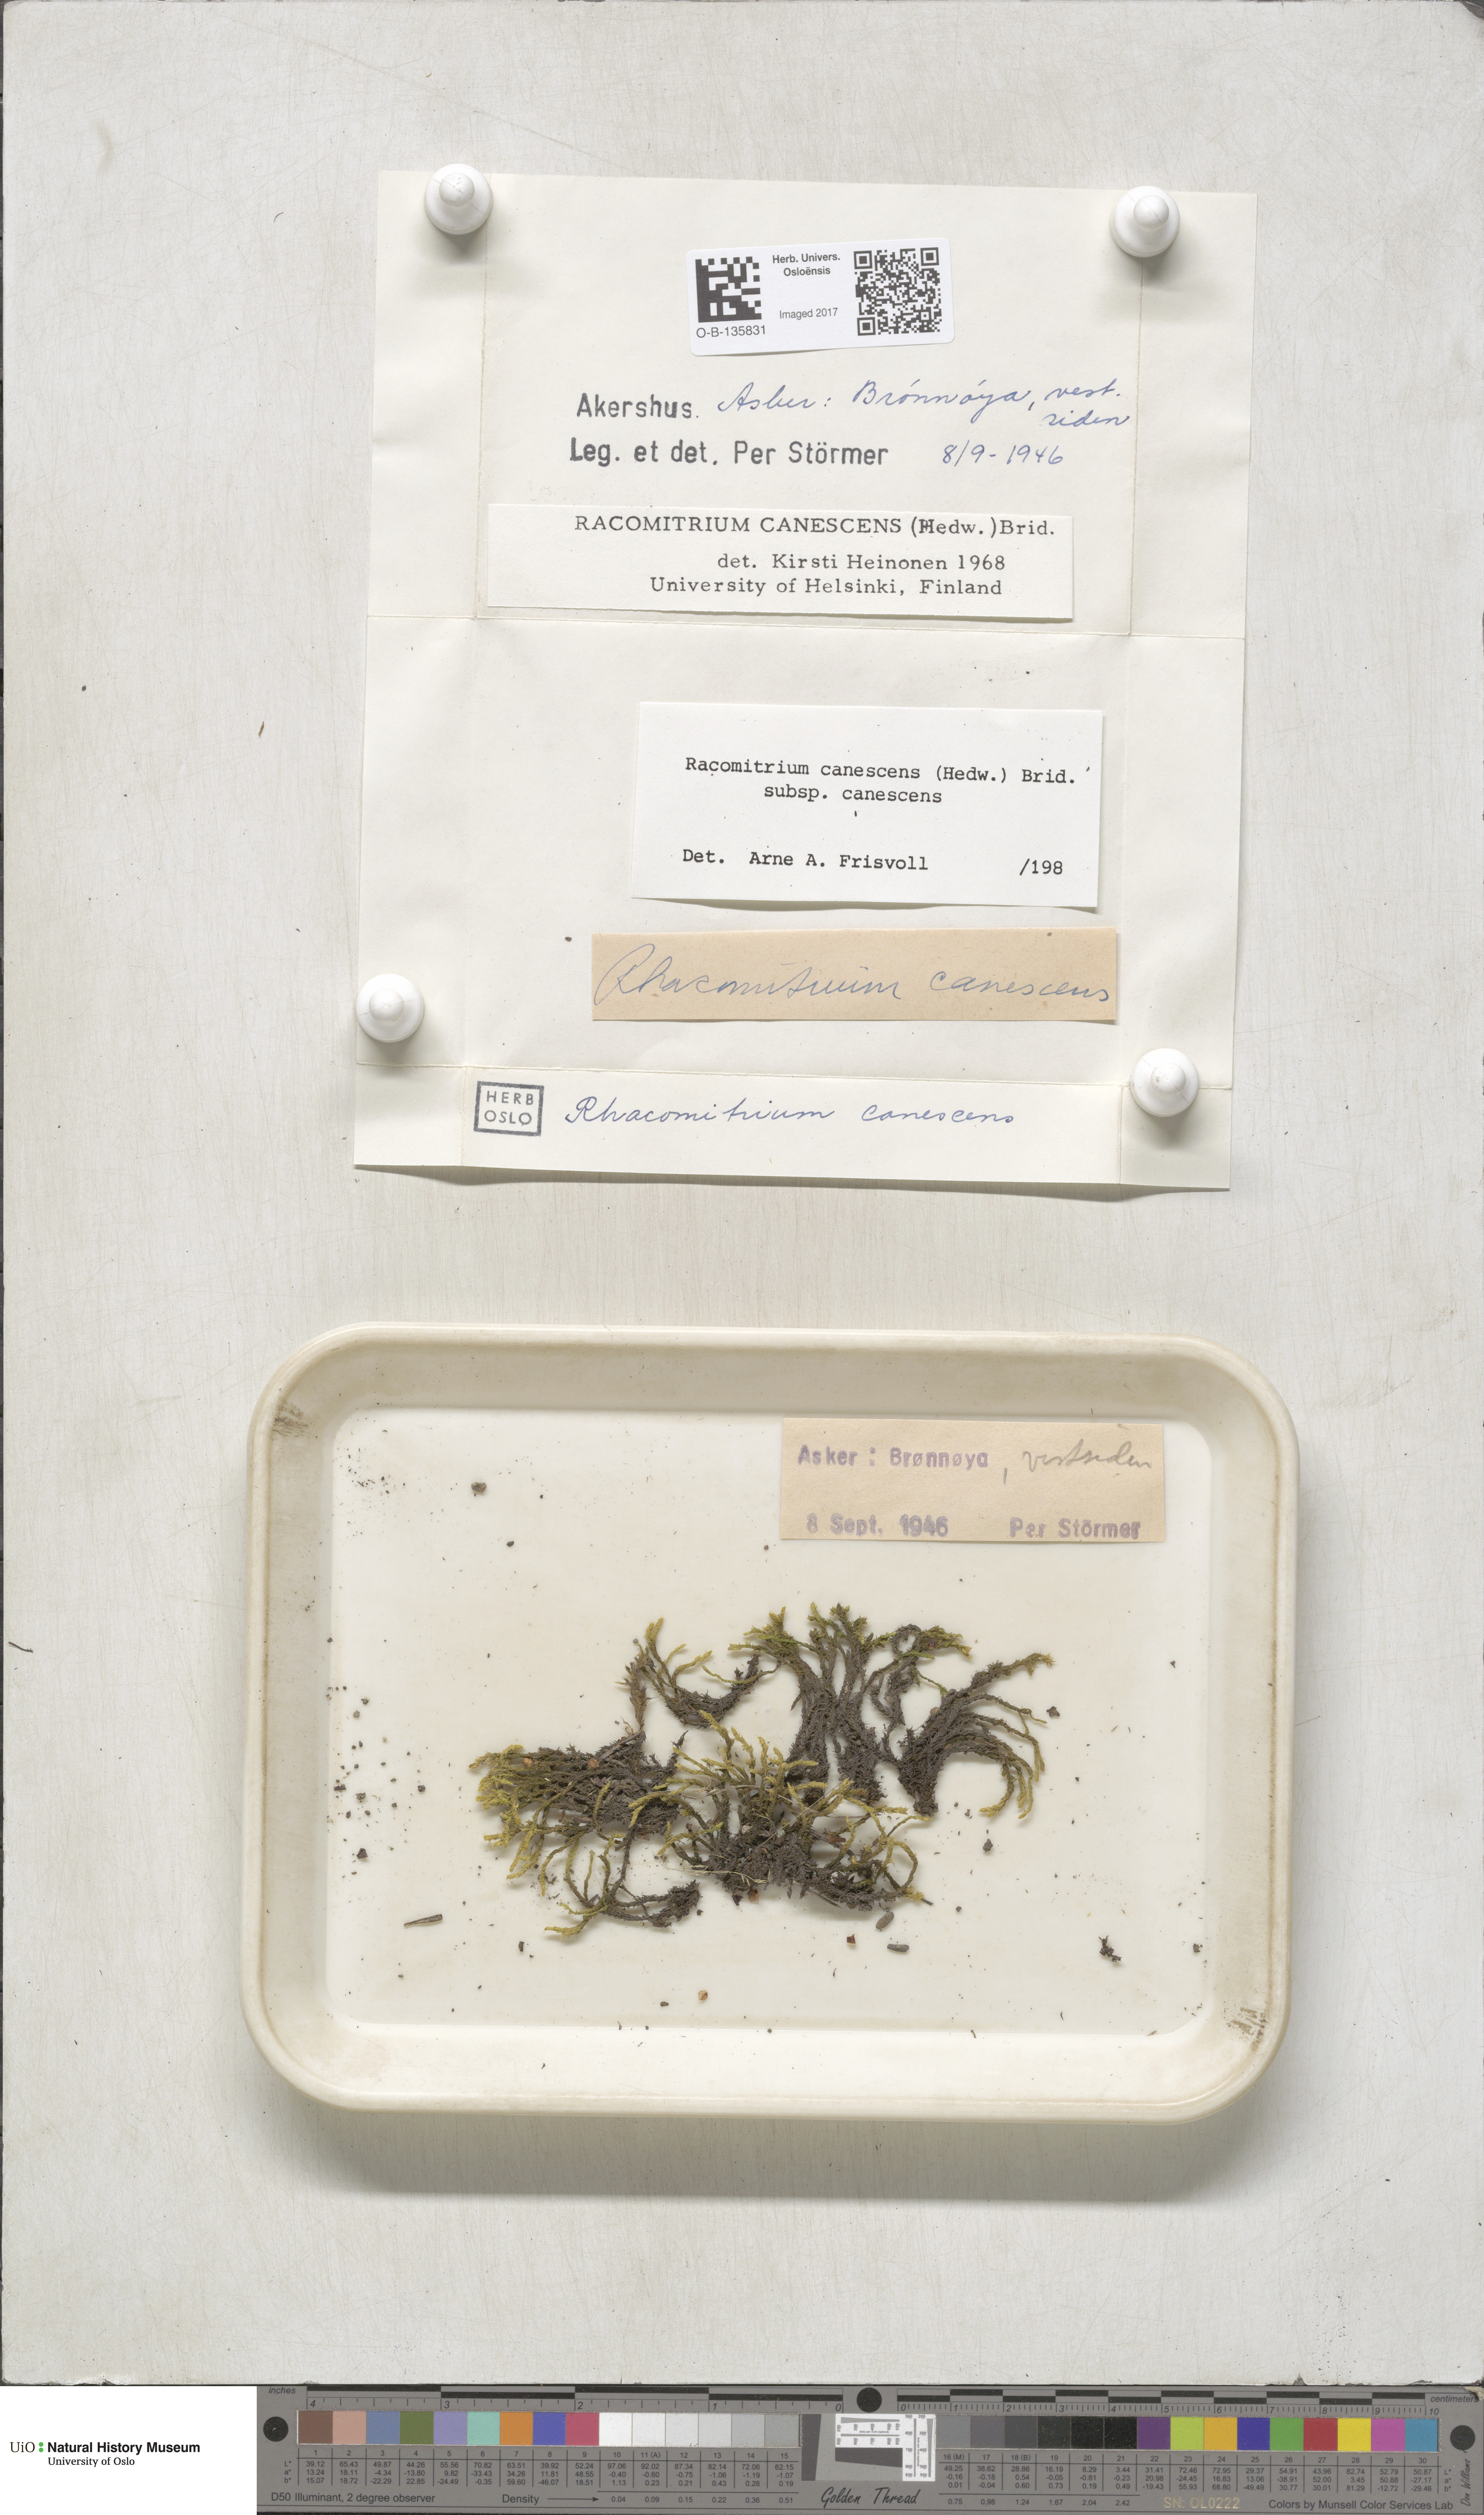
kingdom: Plantae
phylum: Bryophyta
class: Bryopsida
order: Grimmiales
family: Grimmiaceae
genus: Niphotrichum
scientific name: Niphotrichum canescens
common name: Hoary fringe-moss
